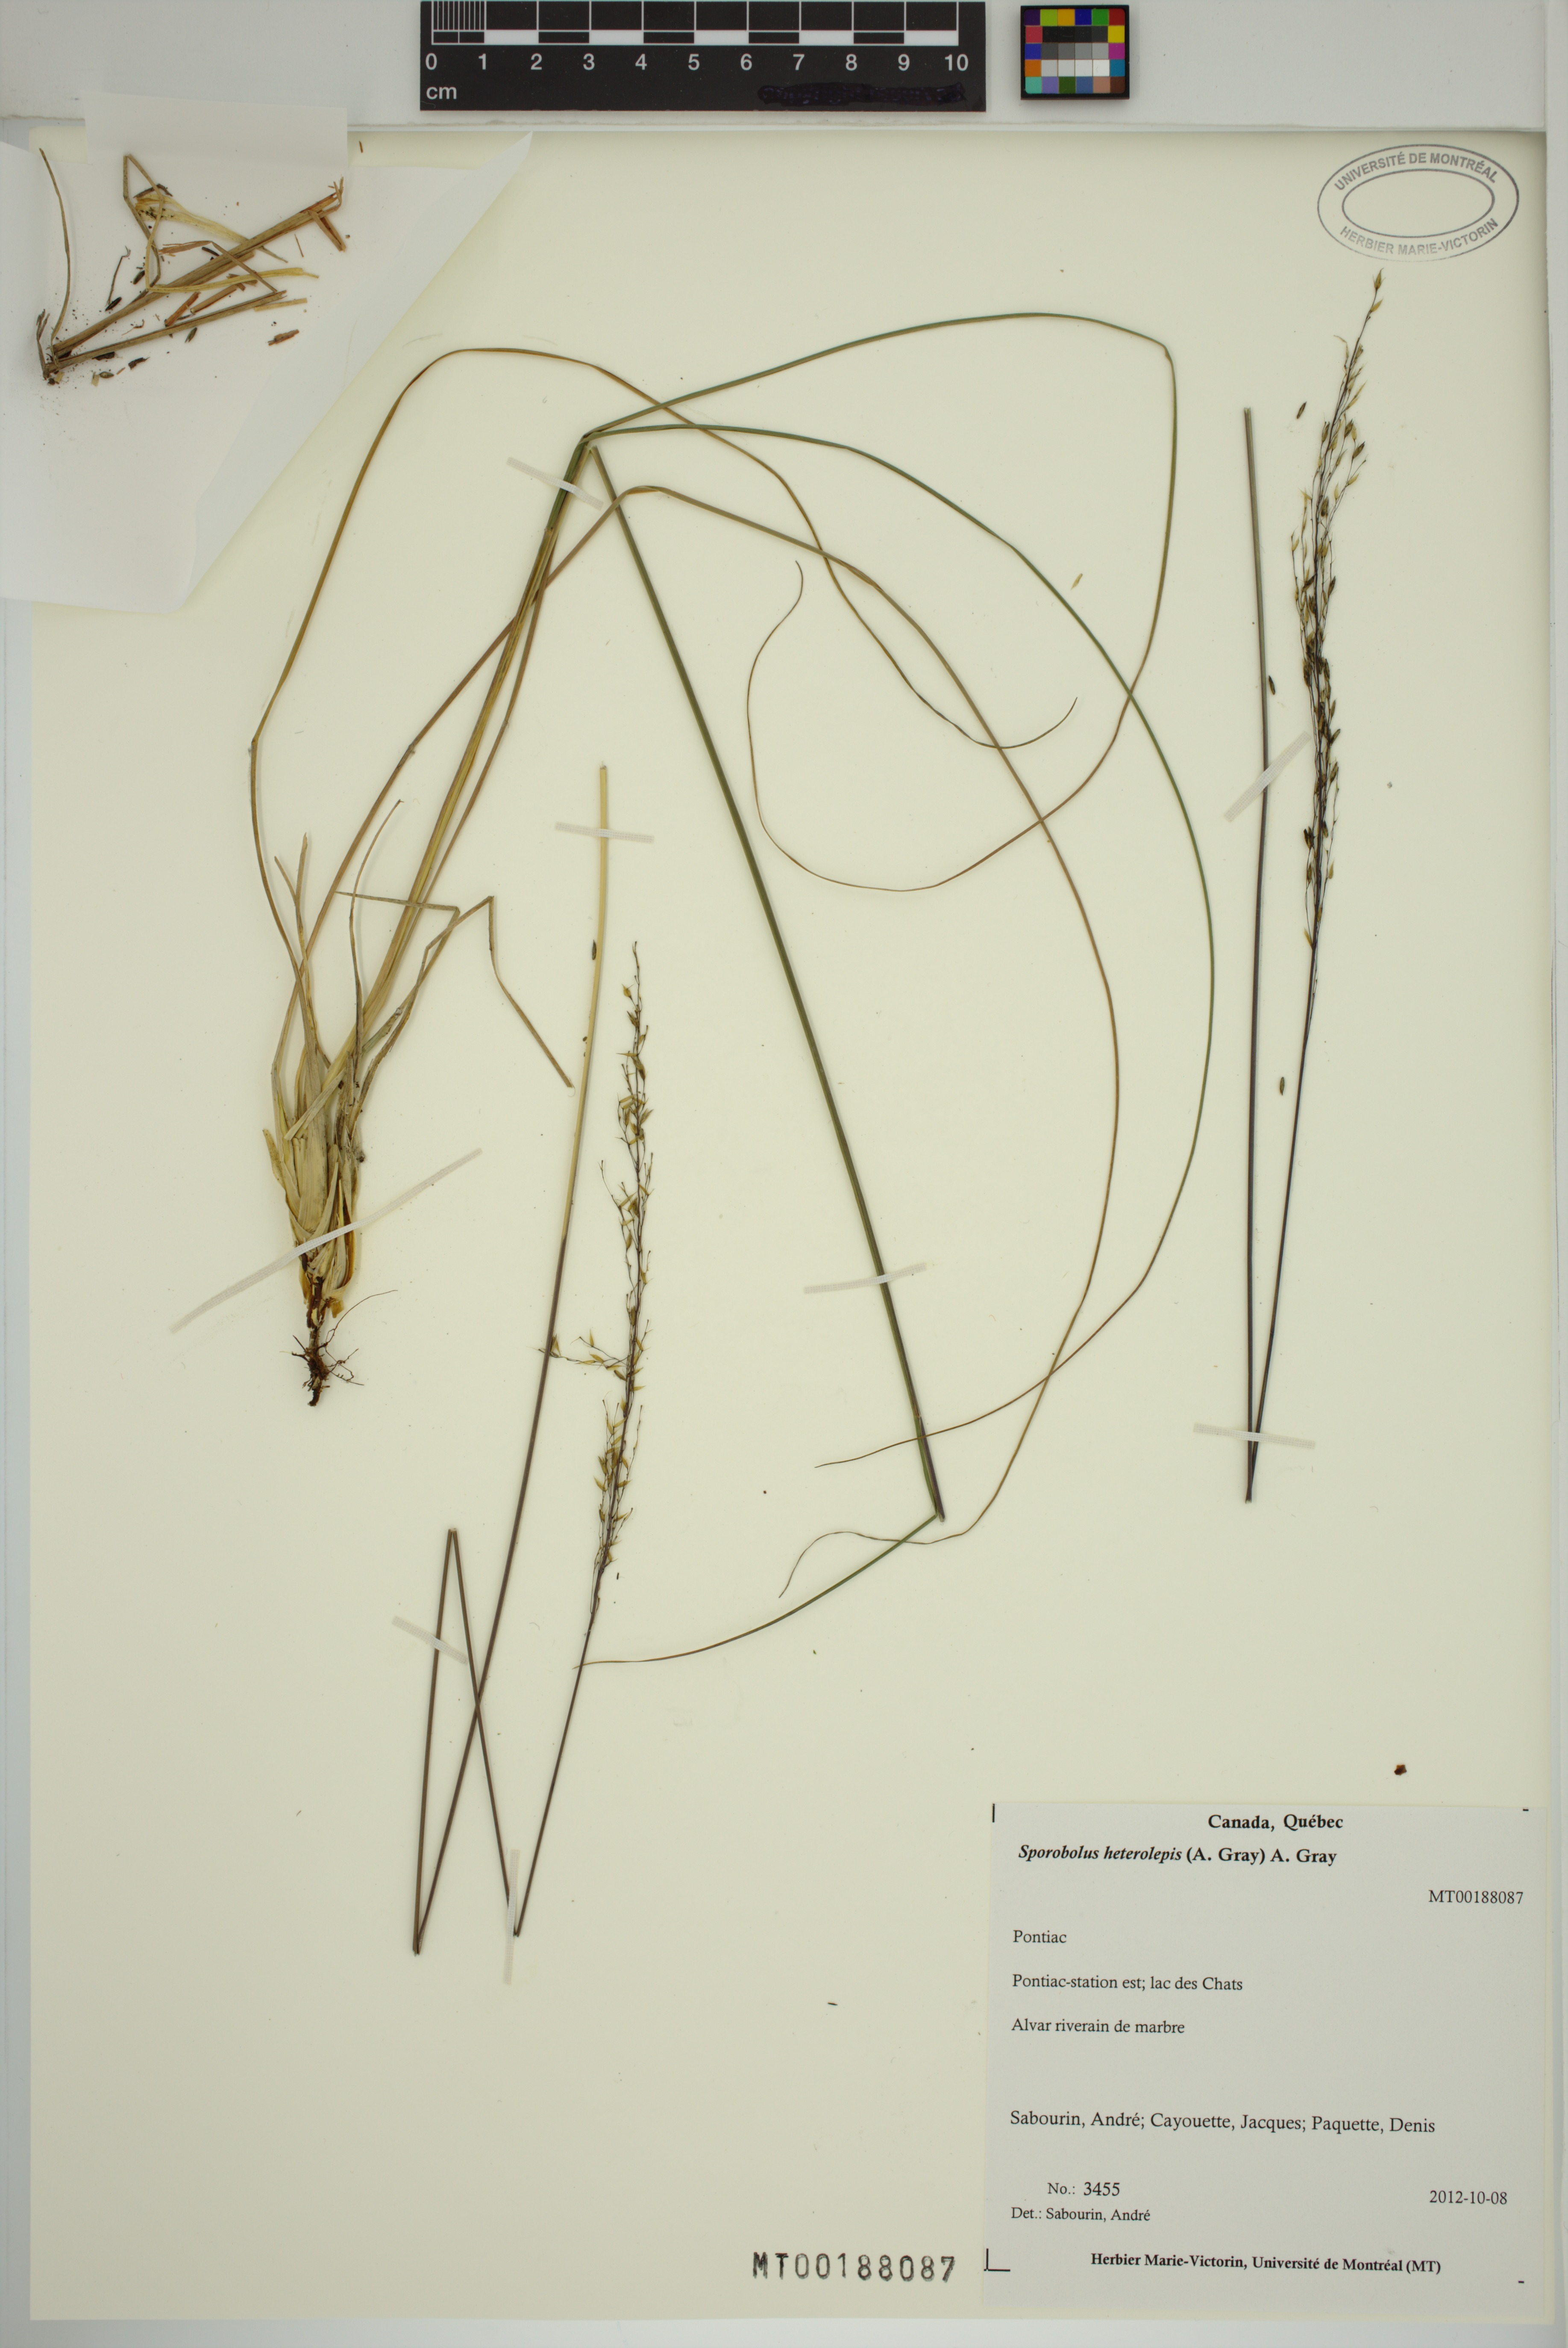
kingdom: Plantae
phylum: Tracheophyta
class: Liliopsida
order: Poales
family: Poaceae
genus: Sporobolus
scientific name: Sporobolus heterolepis
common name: Prairie dropseed
